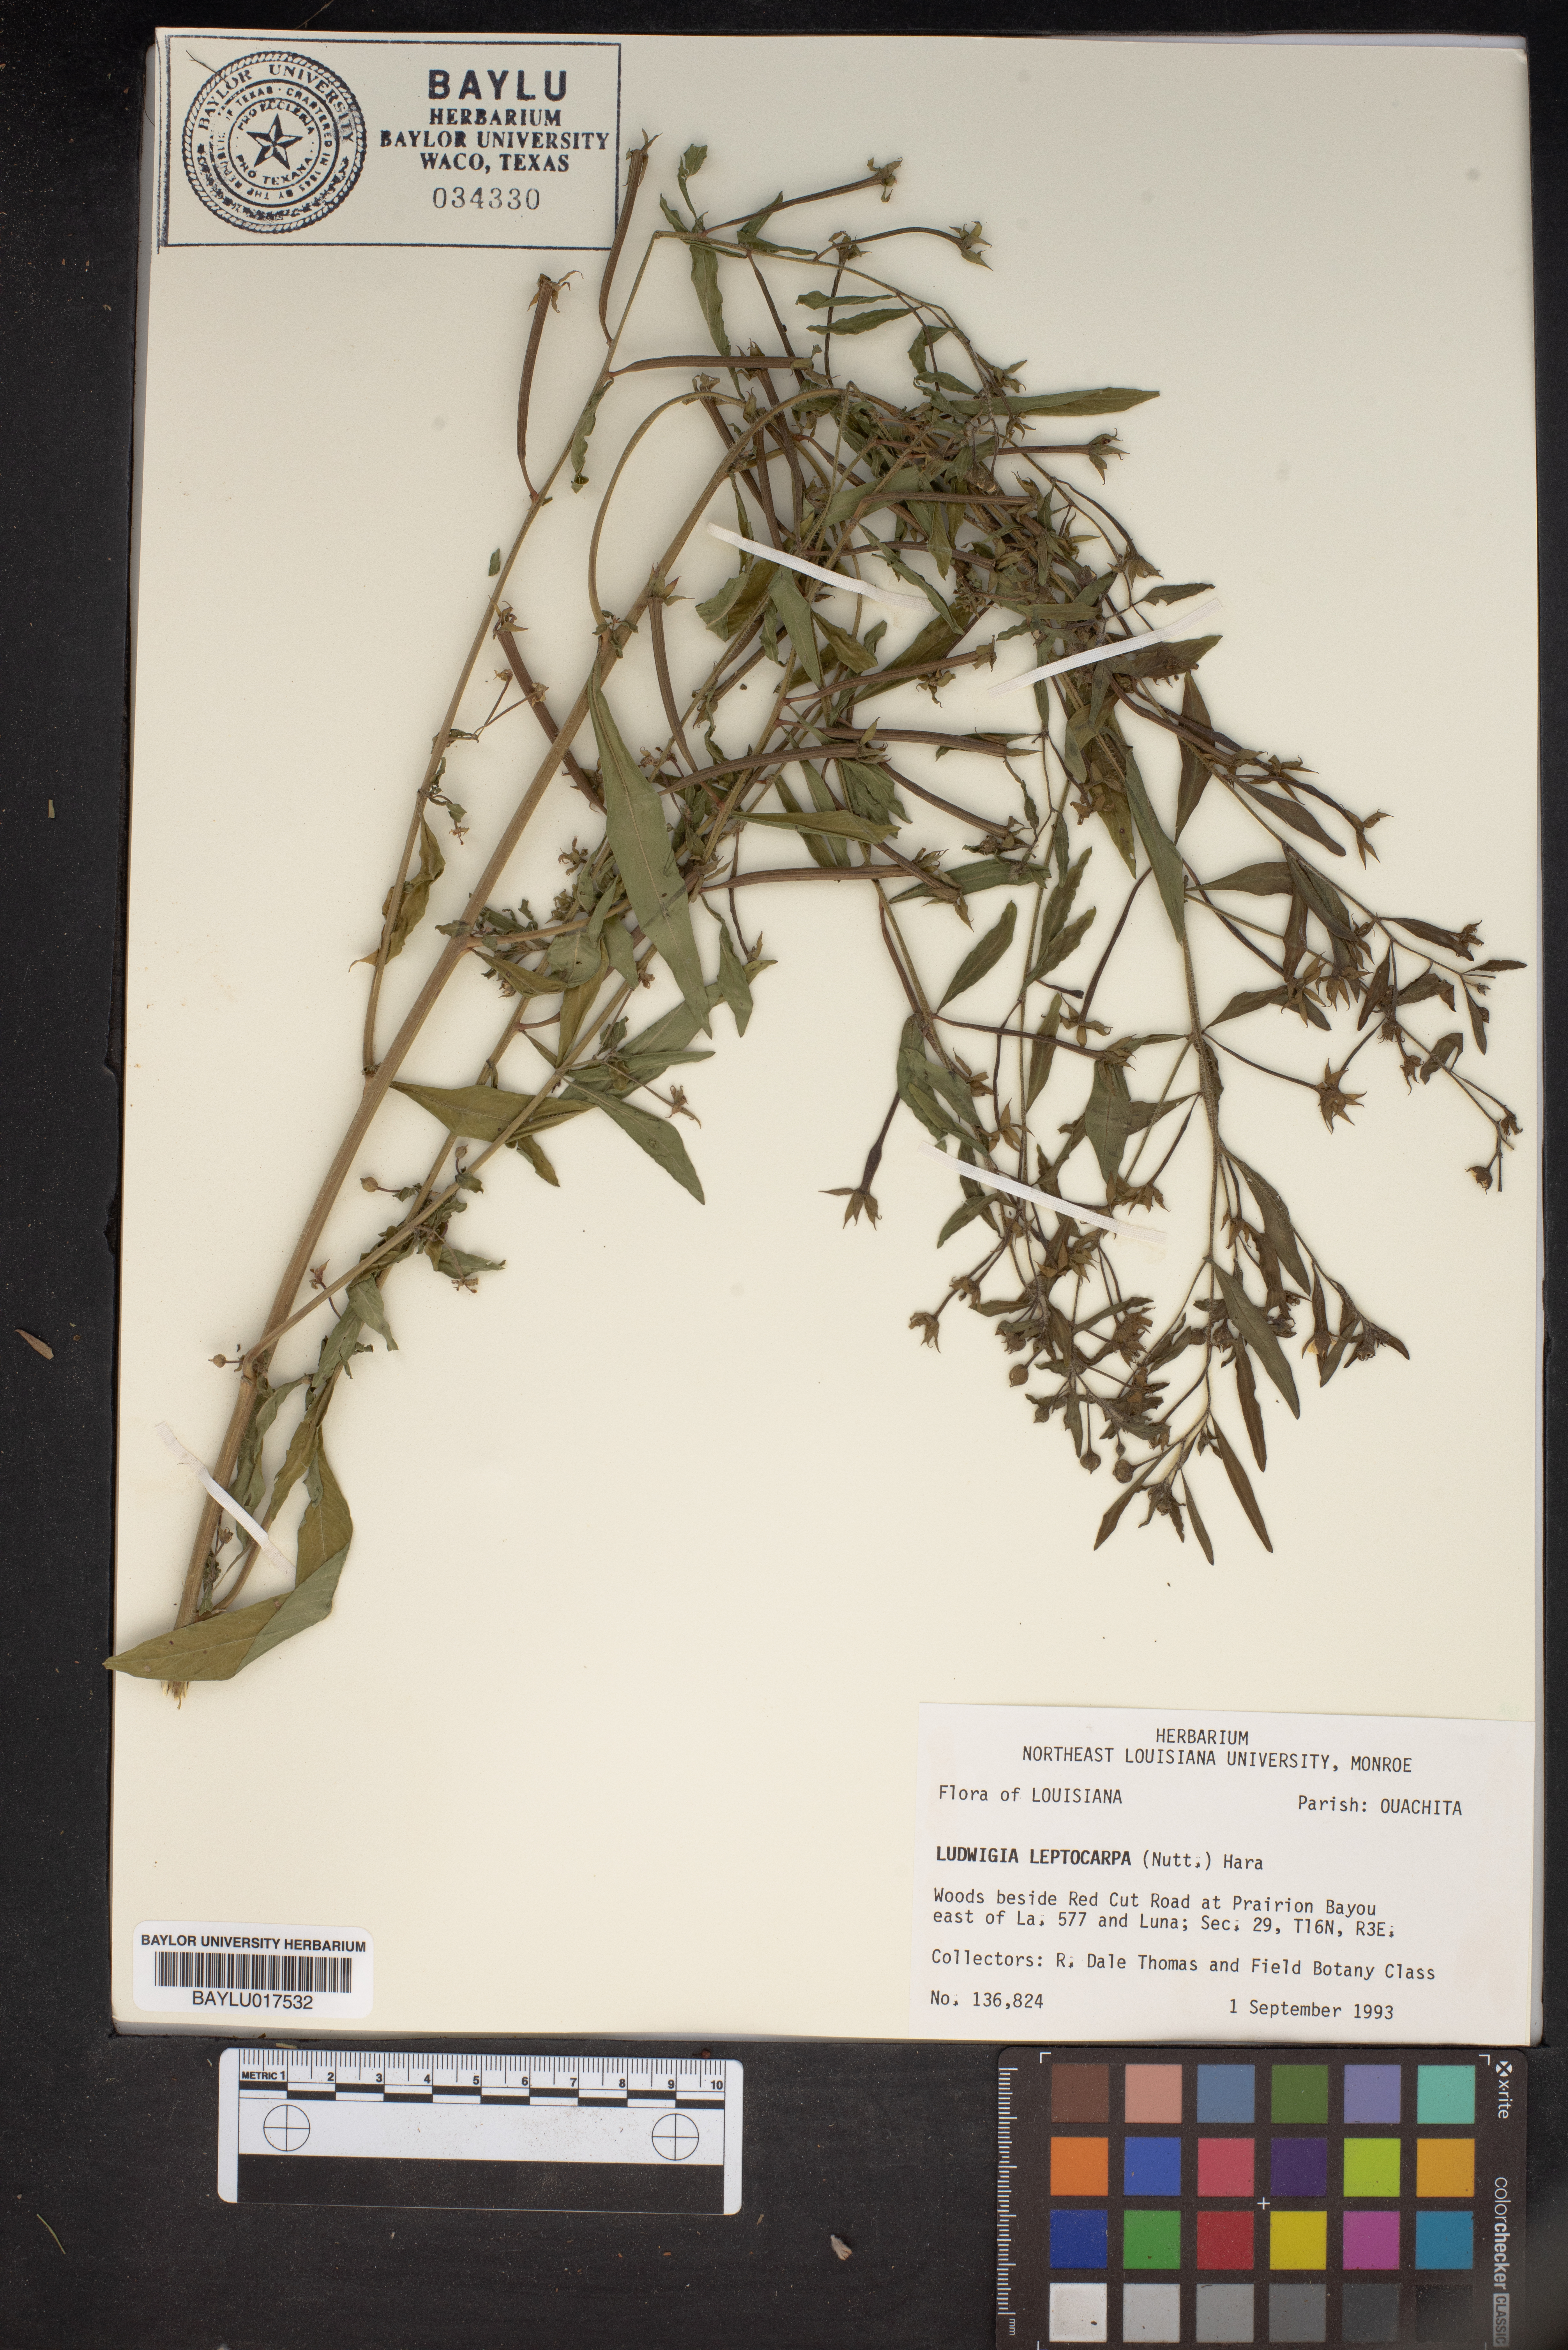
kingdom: Plantae
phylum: Tracheophyta
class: Magnoliopsida
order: Myrtales
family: Onagraceae
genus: Ludwigia
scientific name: Ludwigia leptocarpa
